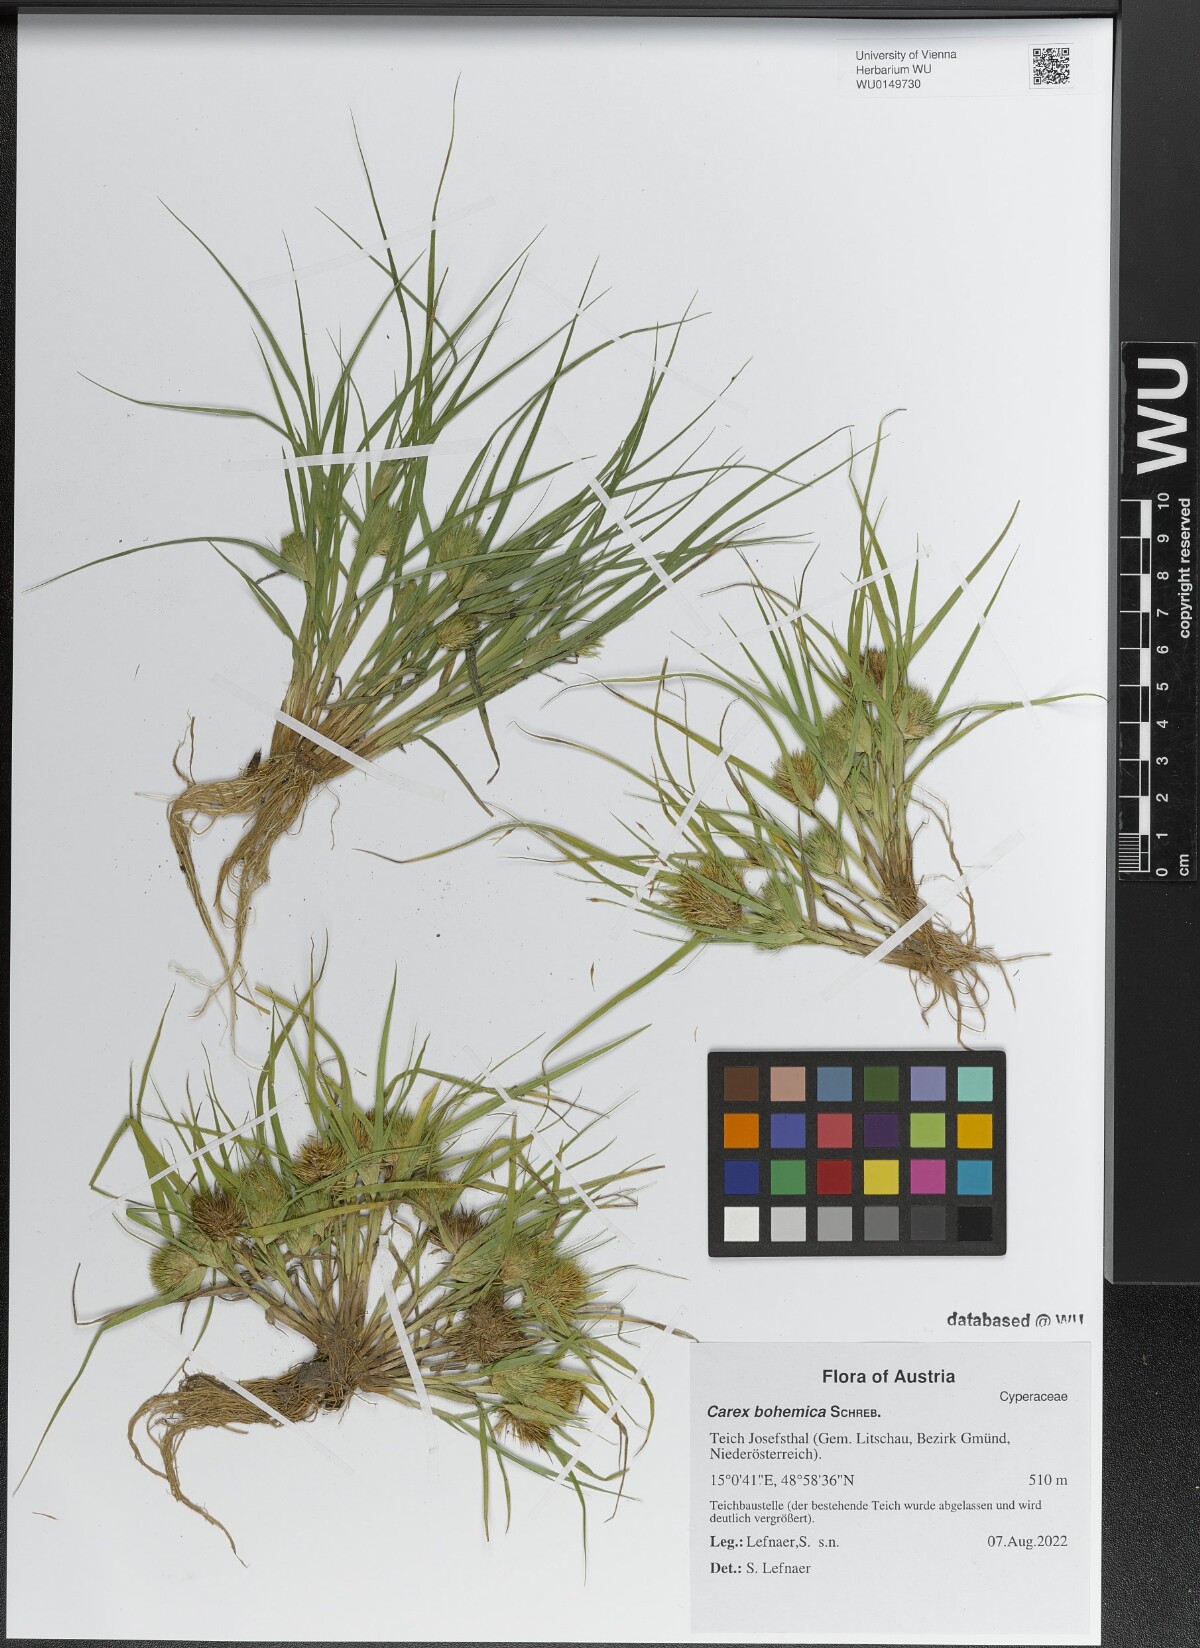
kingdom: Plantae
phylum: Tracheophyta
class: Liliopsida
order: Poales
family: Cyperaceae
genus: Carex
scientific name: Carex bohemica
